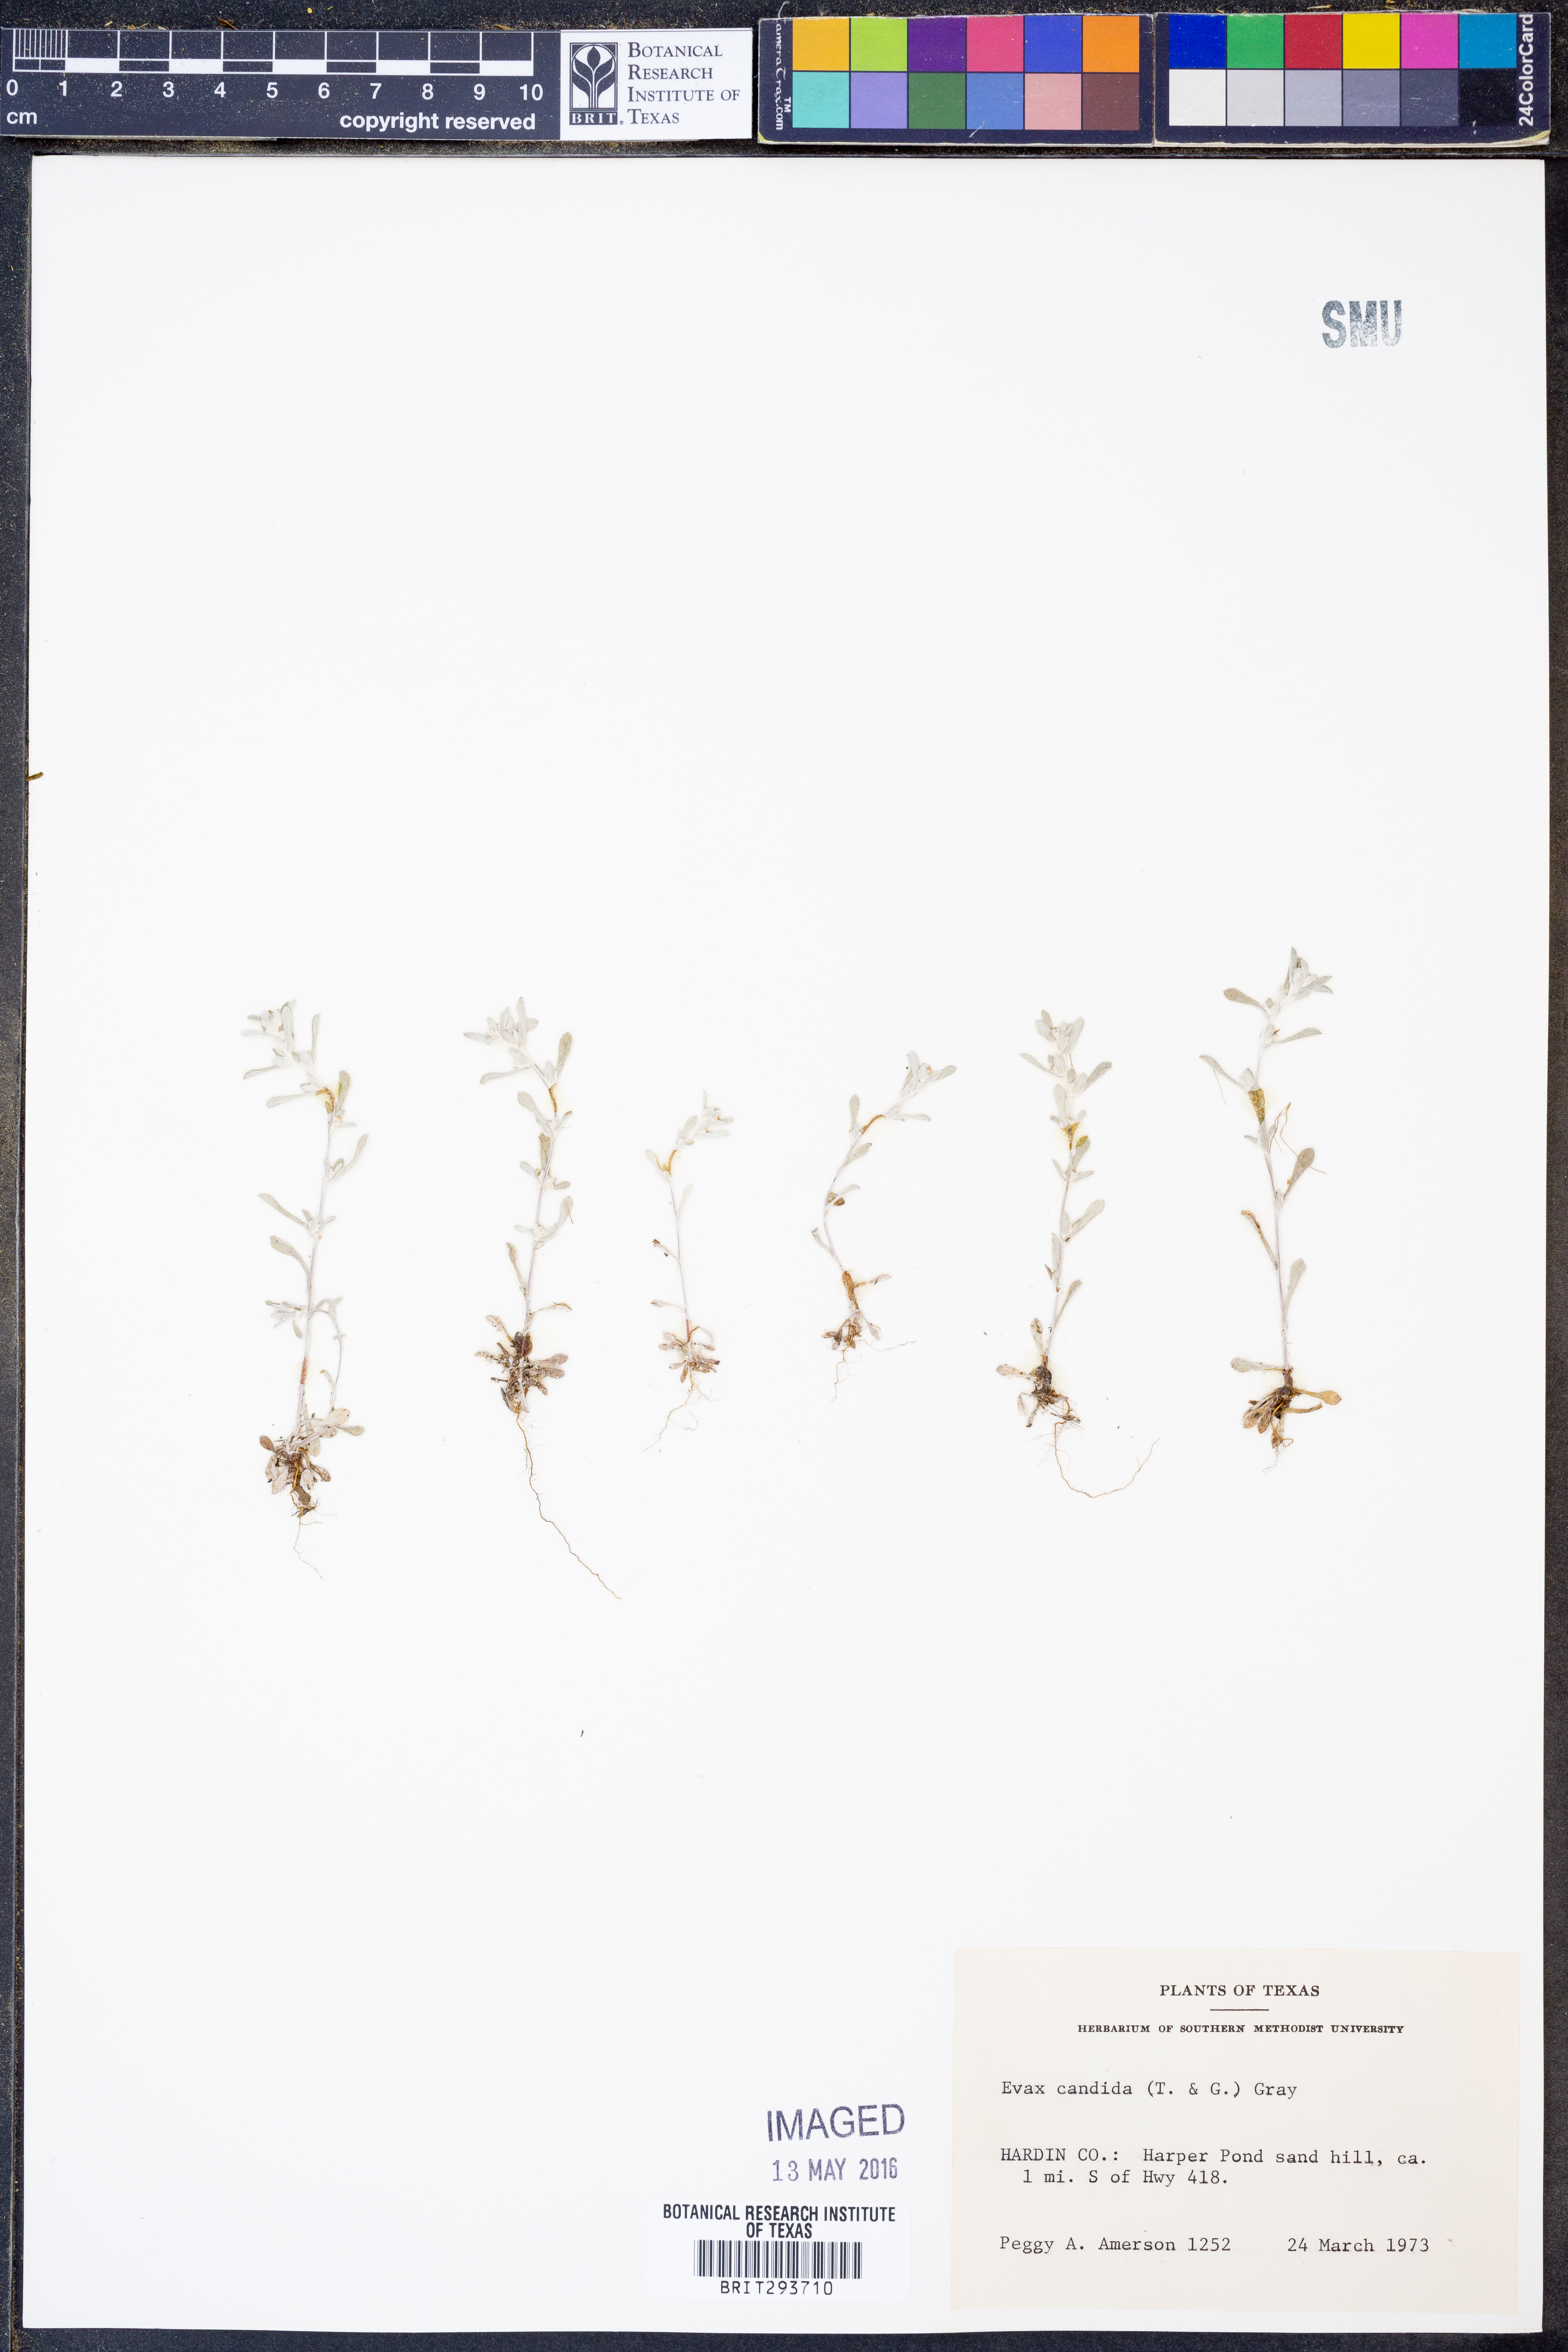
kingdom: Plantae
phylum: Tracheophyta
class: Magnoliopsida
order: Asterales
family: Asteraceae
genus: Diaperia
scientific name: Diaperia candida
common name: Silver rabbit-tobacco
